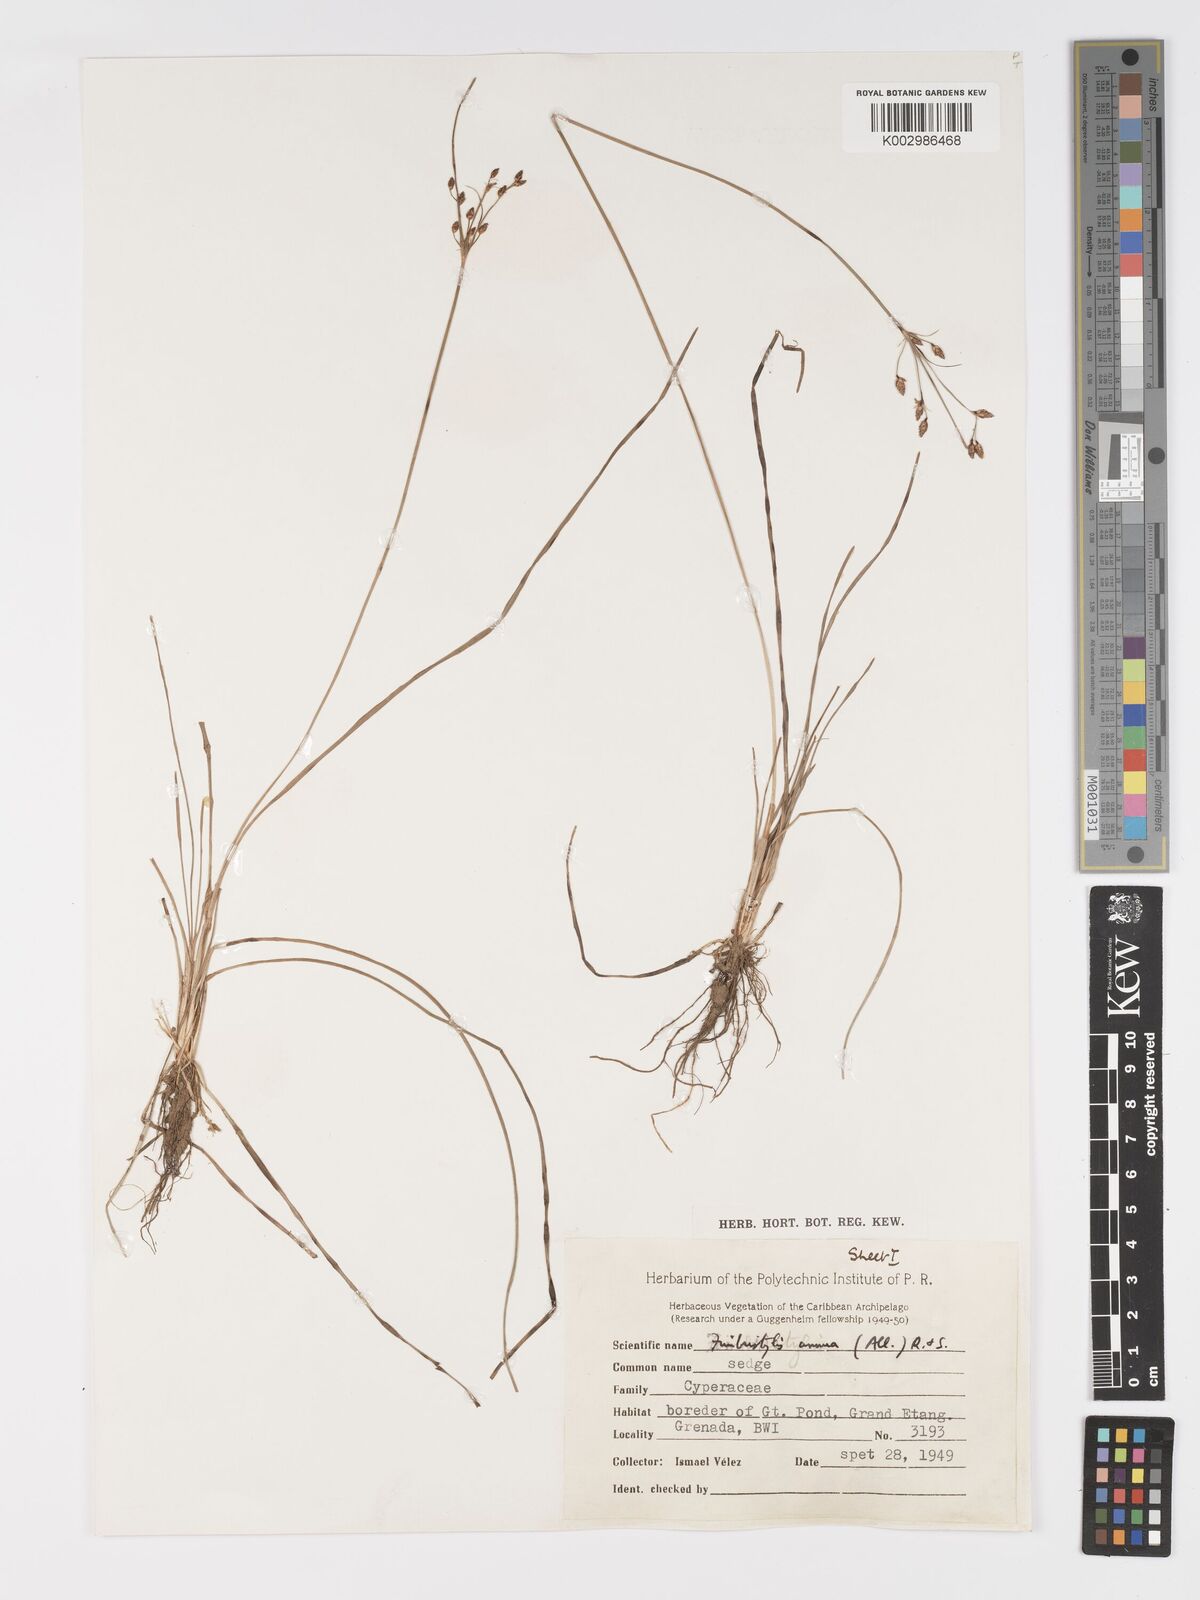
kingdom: Plantae
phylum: Tracheophyta
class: Liliopsida
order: Poales
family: Cyperaceae
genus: Fimbristylis
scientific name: Fimbristylis dichotoma
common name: Forked fimbry
